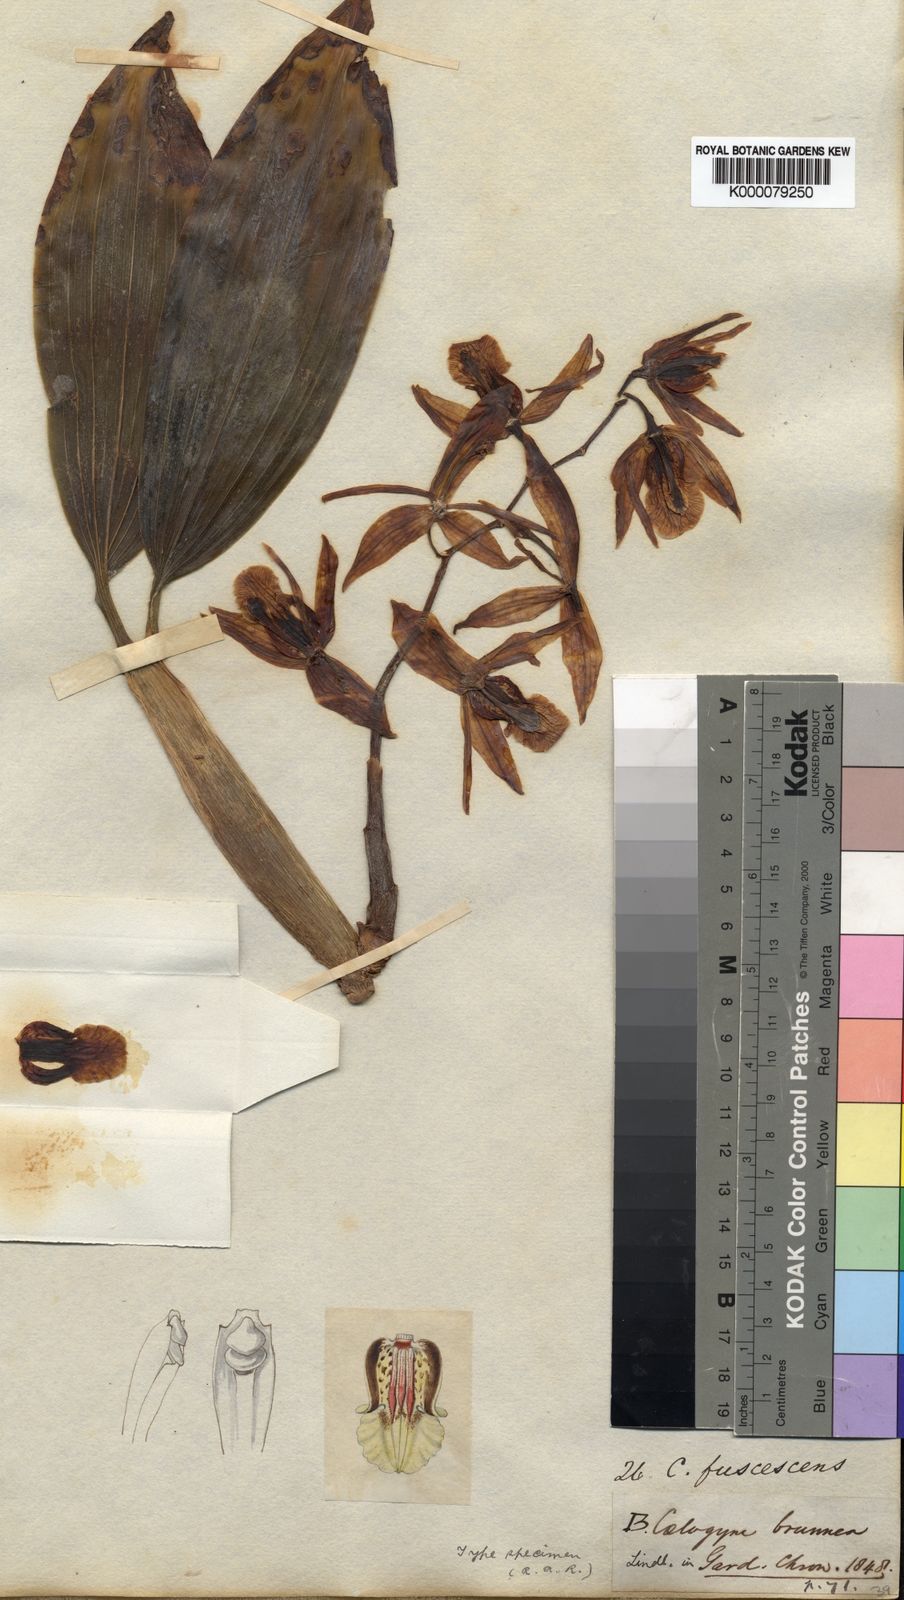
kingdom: Plantae
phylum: Tracheophyta
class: Liliopsida
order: Asparagales
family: Orchidaceae
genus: Coelogyne
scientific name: Coelogyne fuscescens
